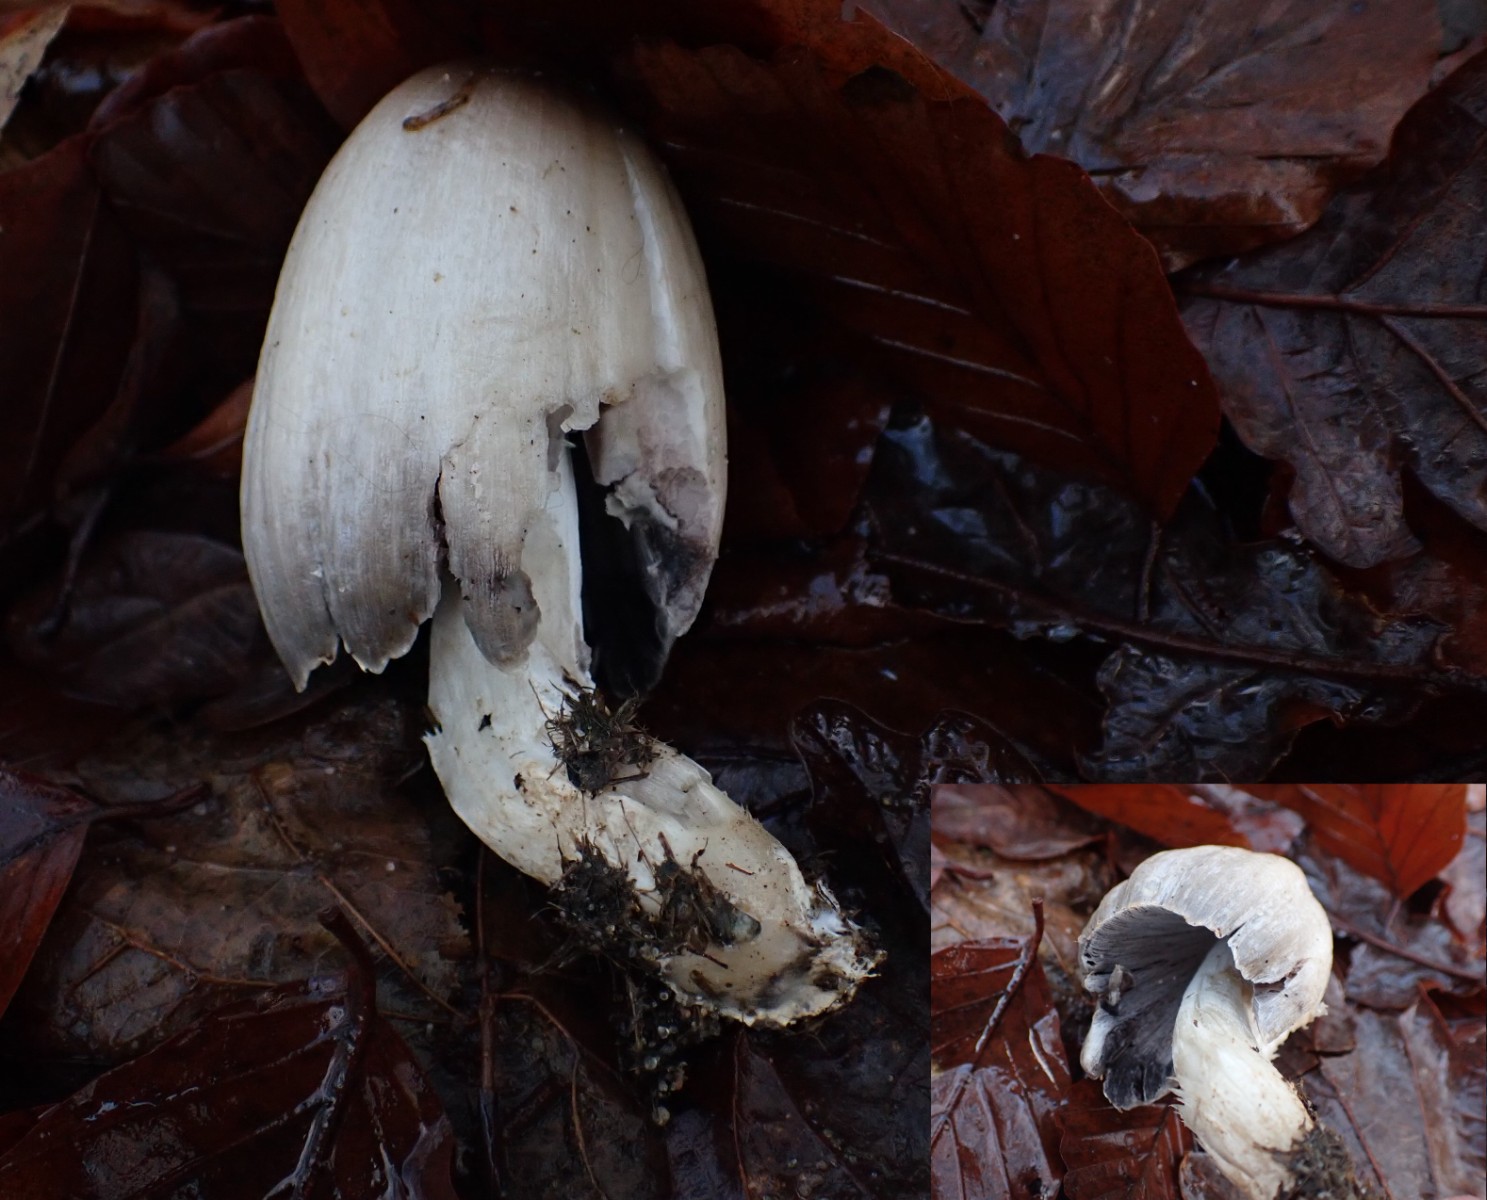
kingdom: Fungi
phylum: Basidiomycota
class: Agaricomycetes
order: Agaricales
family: Psathyrellaceae
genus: Coprinopsis
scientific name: Coprinopsis atramentaria
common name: almindelig blækhat
